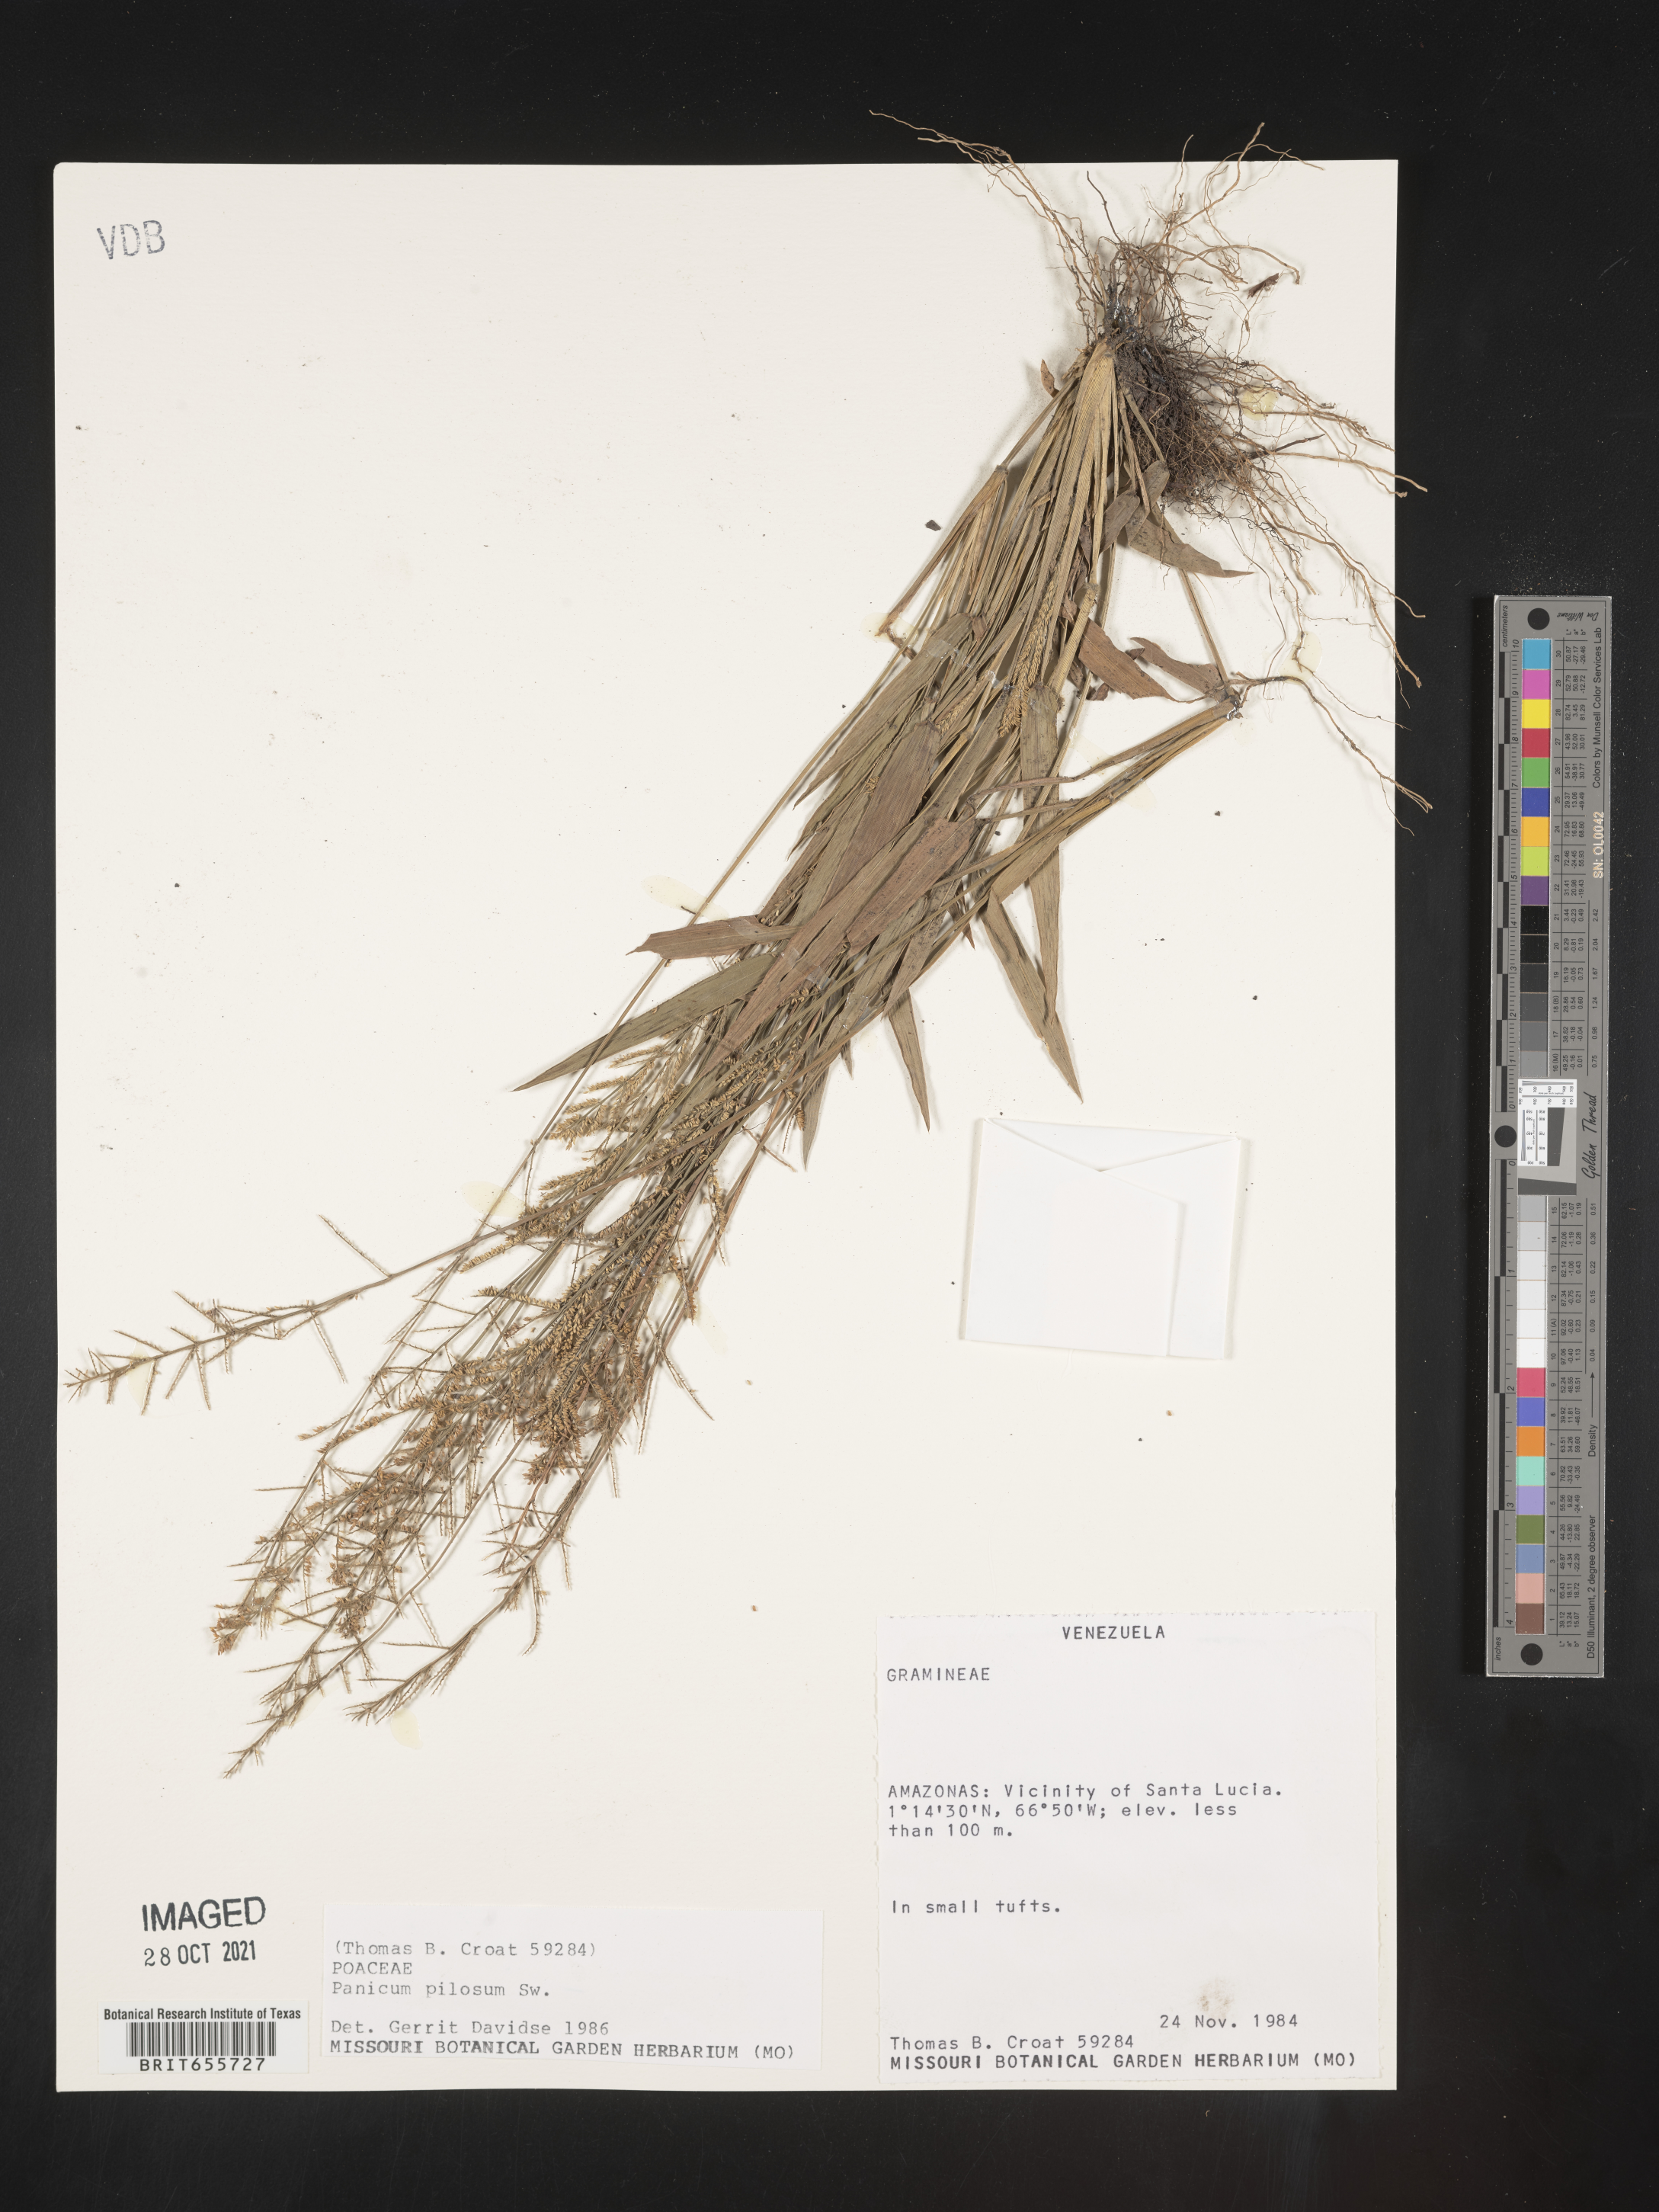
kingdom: Plantae
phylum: Tracheophyta
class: Liliopsida
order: Poales
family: Poaceae
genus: Panicum
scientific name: Panicum
